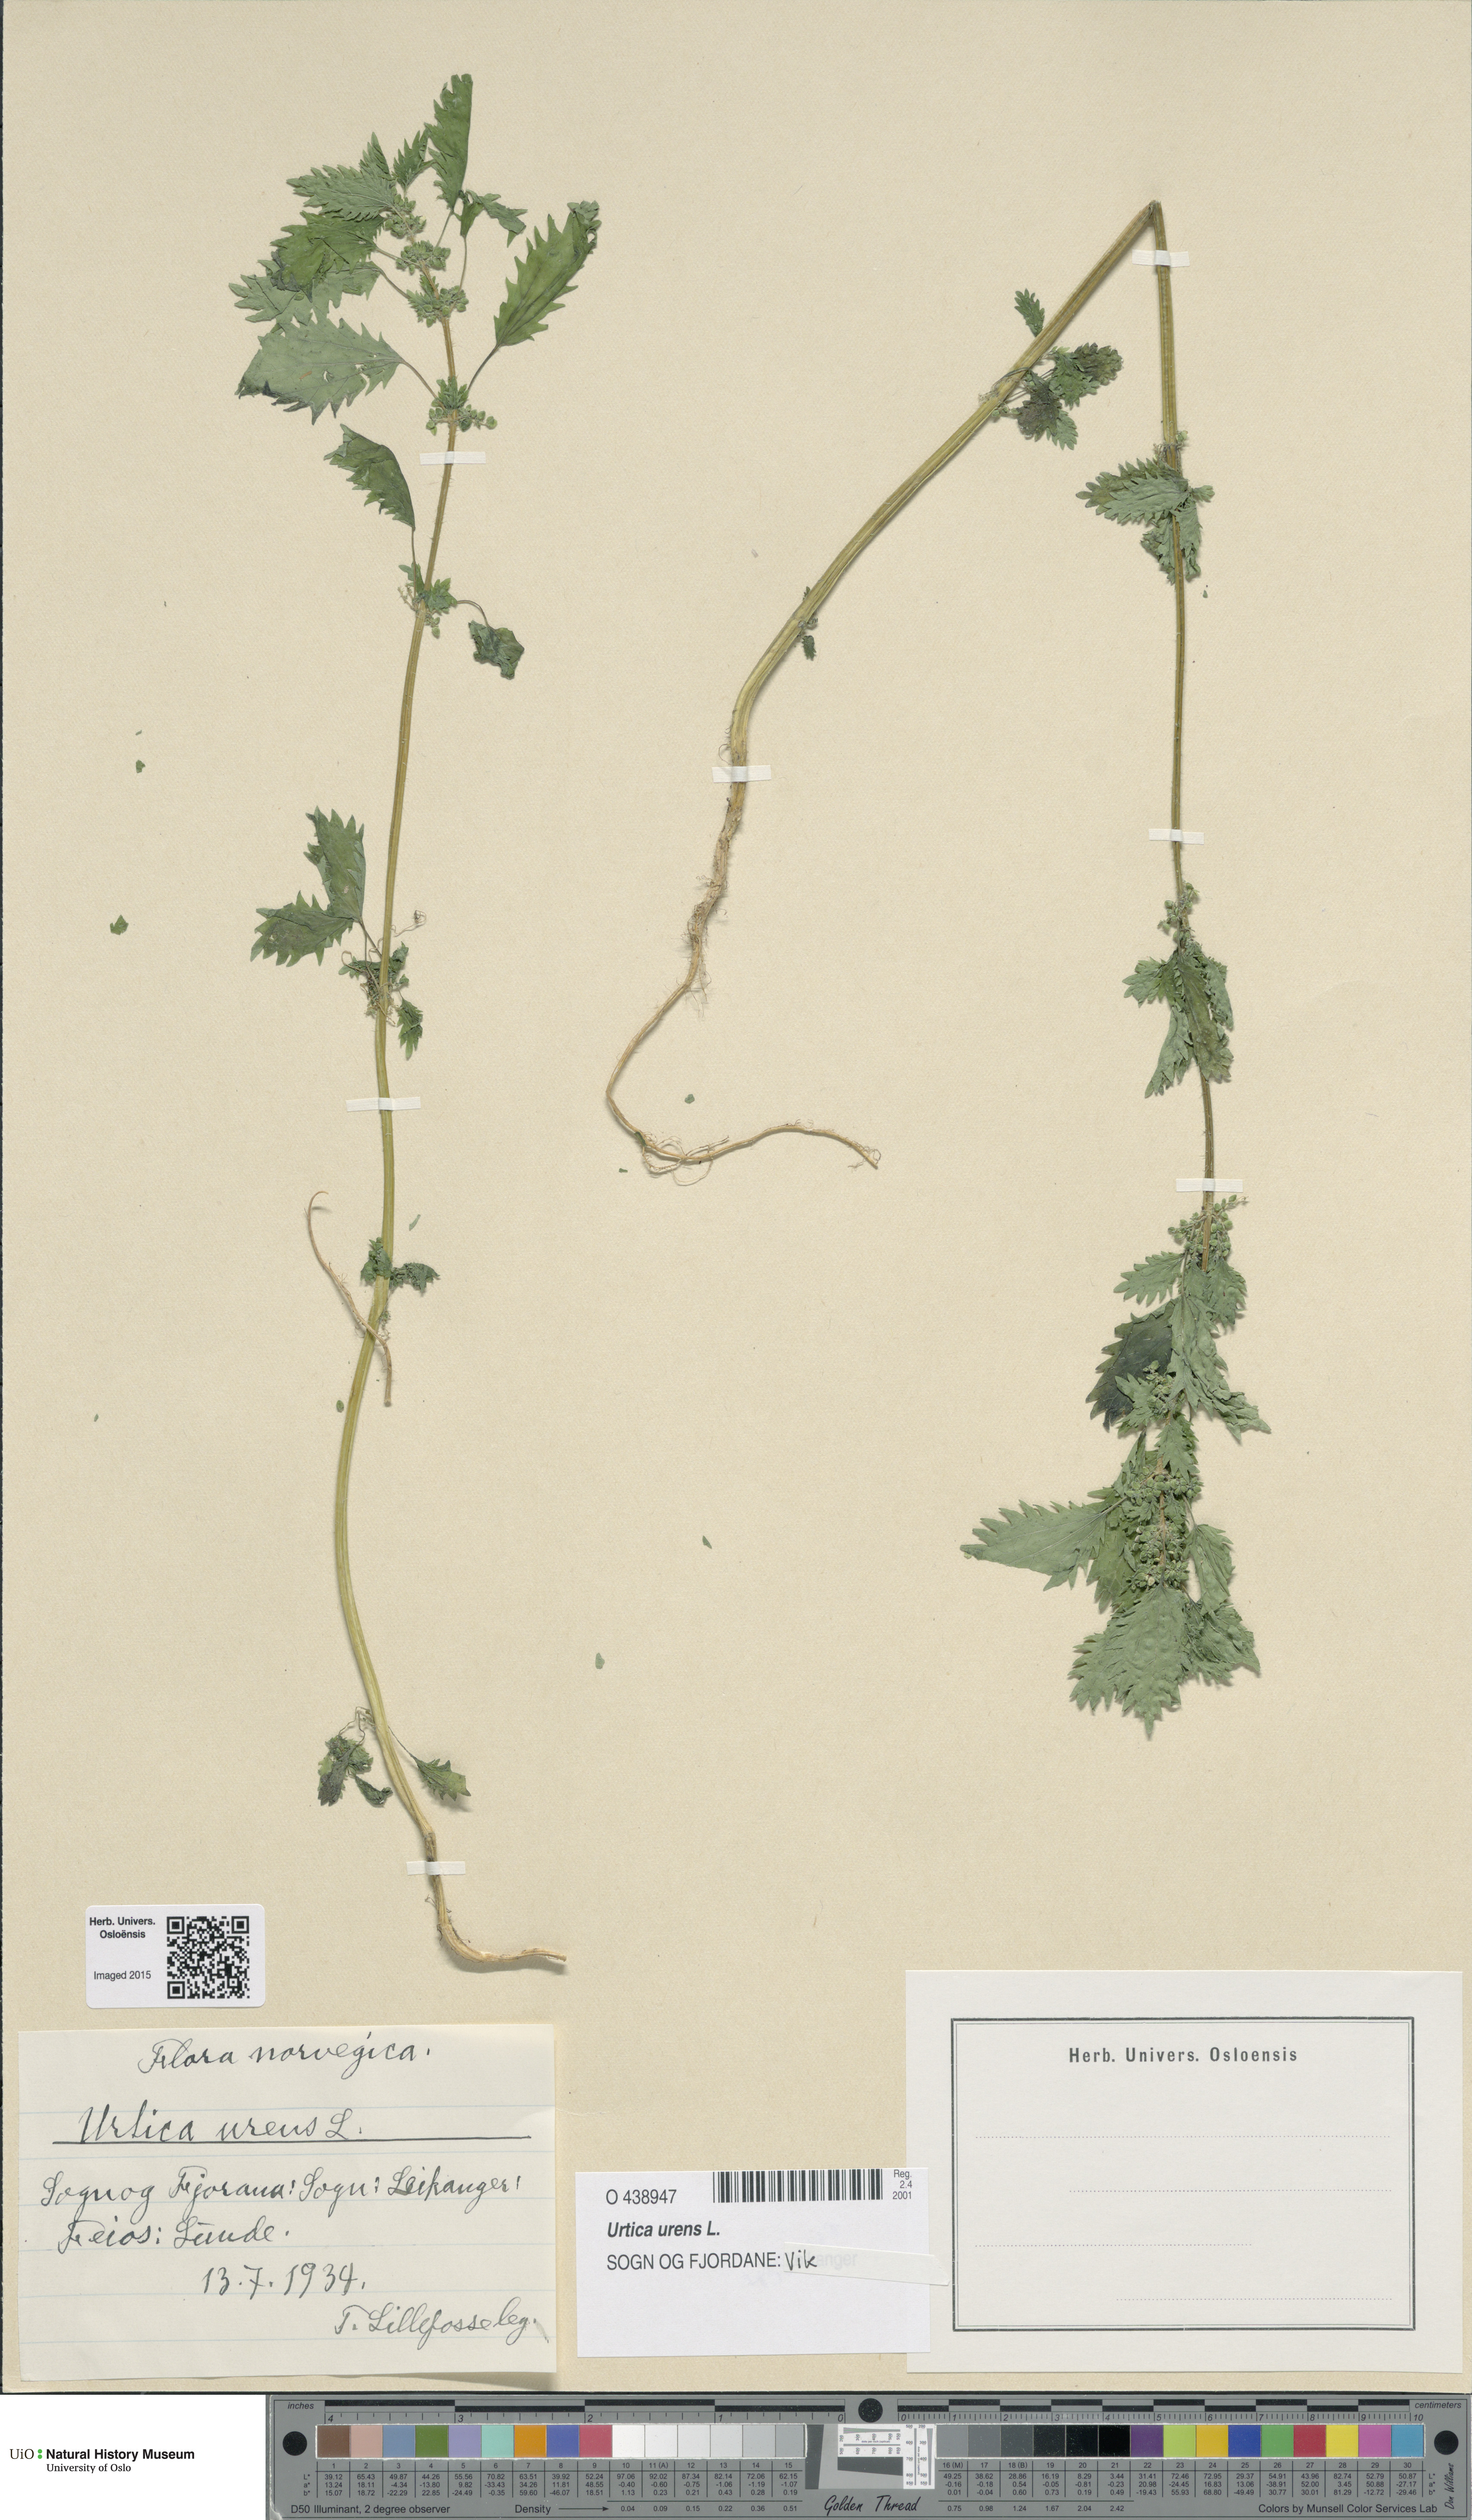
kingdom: Plantae
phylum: Tracheophyta
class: Magnoliopsida
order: Rosales
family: Urticaceae
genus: Urtica
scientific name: Urtica urens
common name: Dwarf nettle
